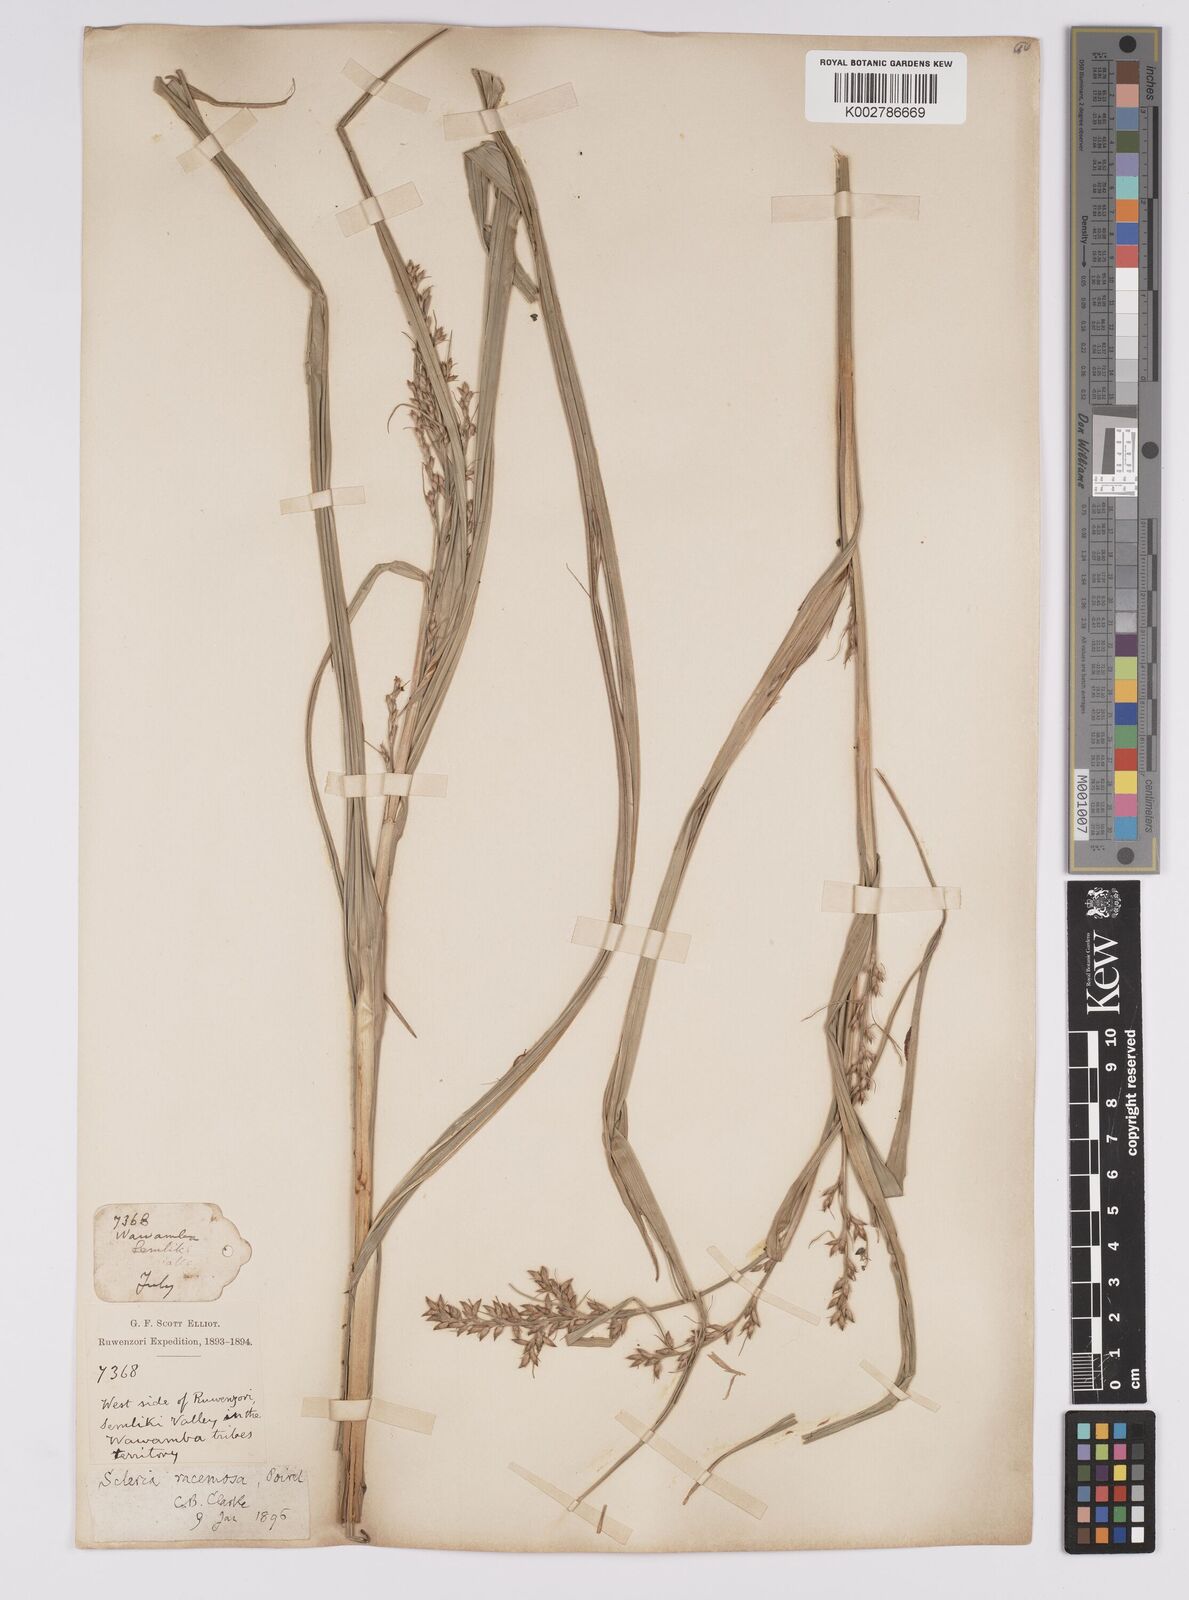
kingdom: Plantae
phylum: Tracheophyta
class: Liliopsida
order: Poales
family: Cyperaceae
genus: Scleria
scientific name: Scleria racemosa
